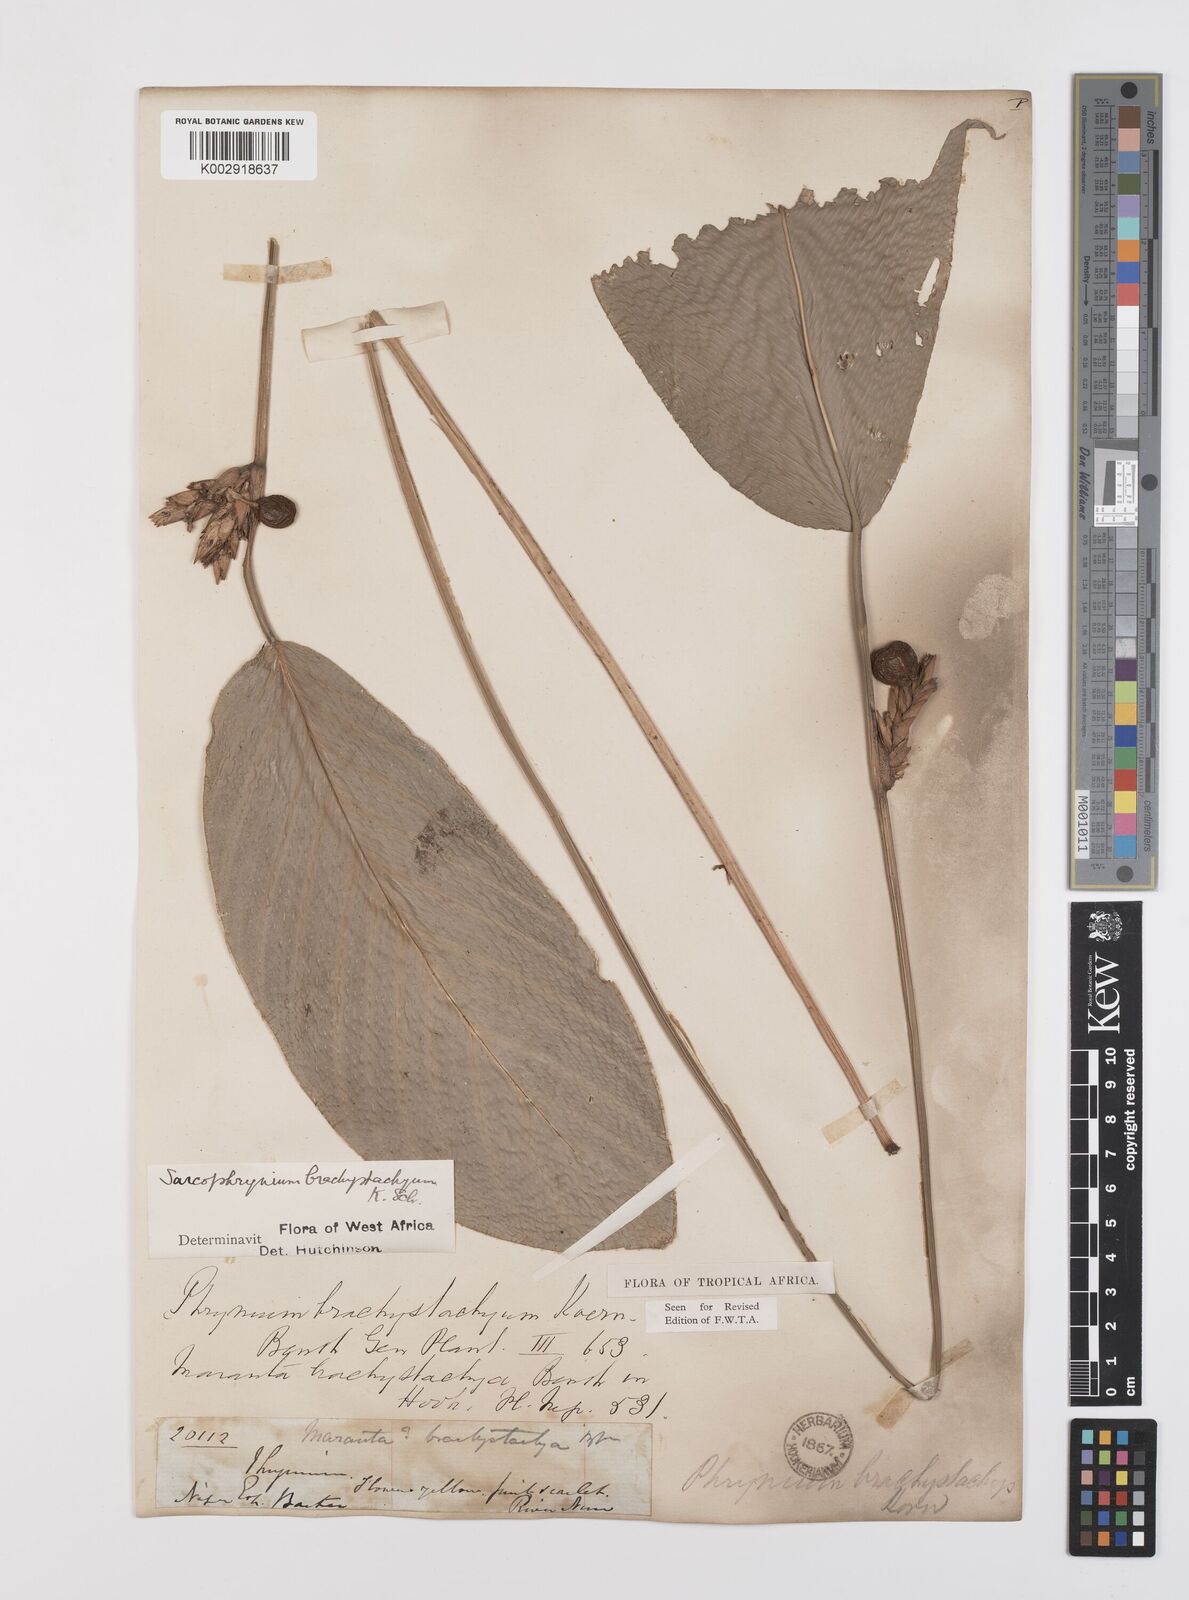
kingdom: Plantae
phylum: Tracheophyta
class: Liliopsida
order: Zingiberales
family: Marantaceae
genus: Sarcophrynium
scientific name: Sarcophrynium brachystachyum
